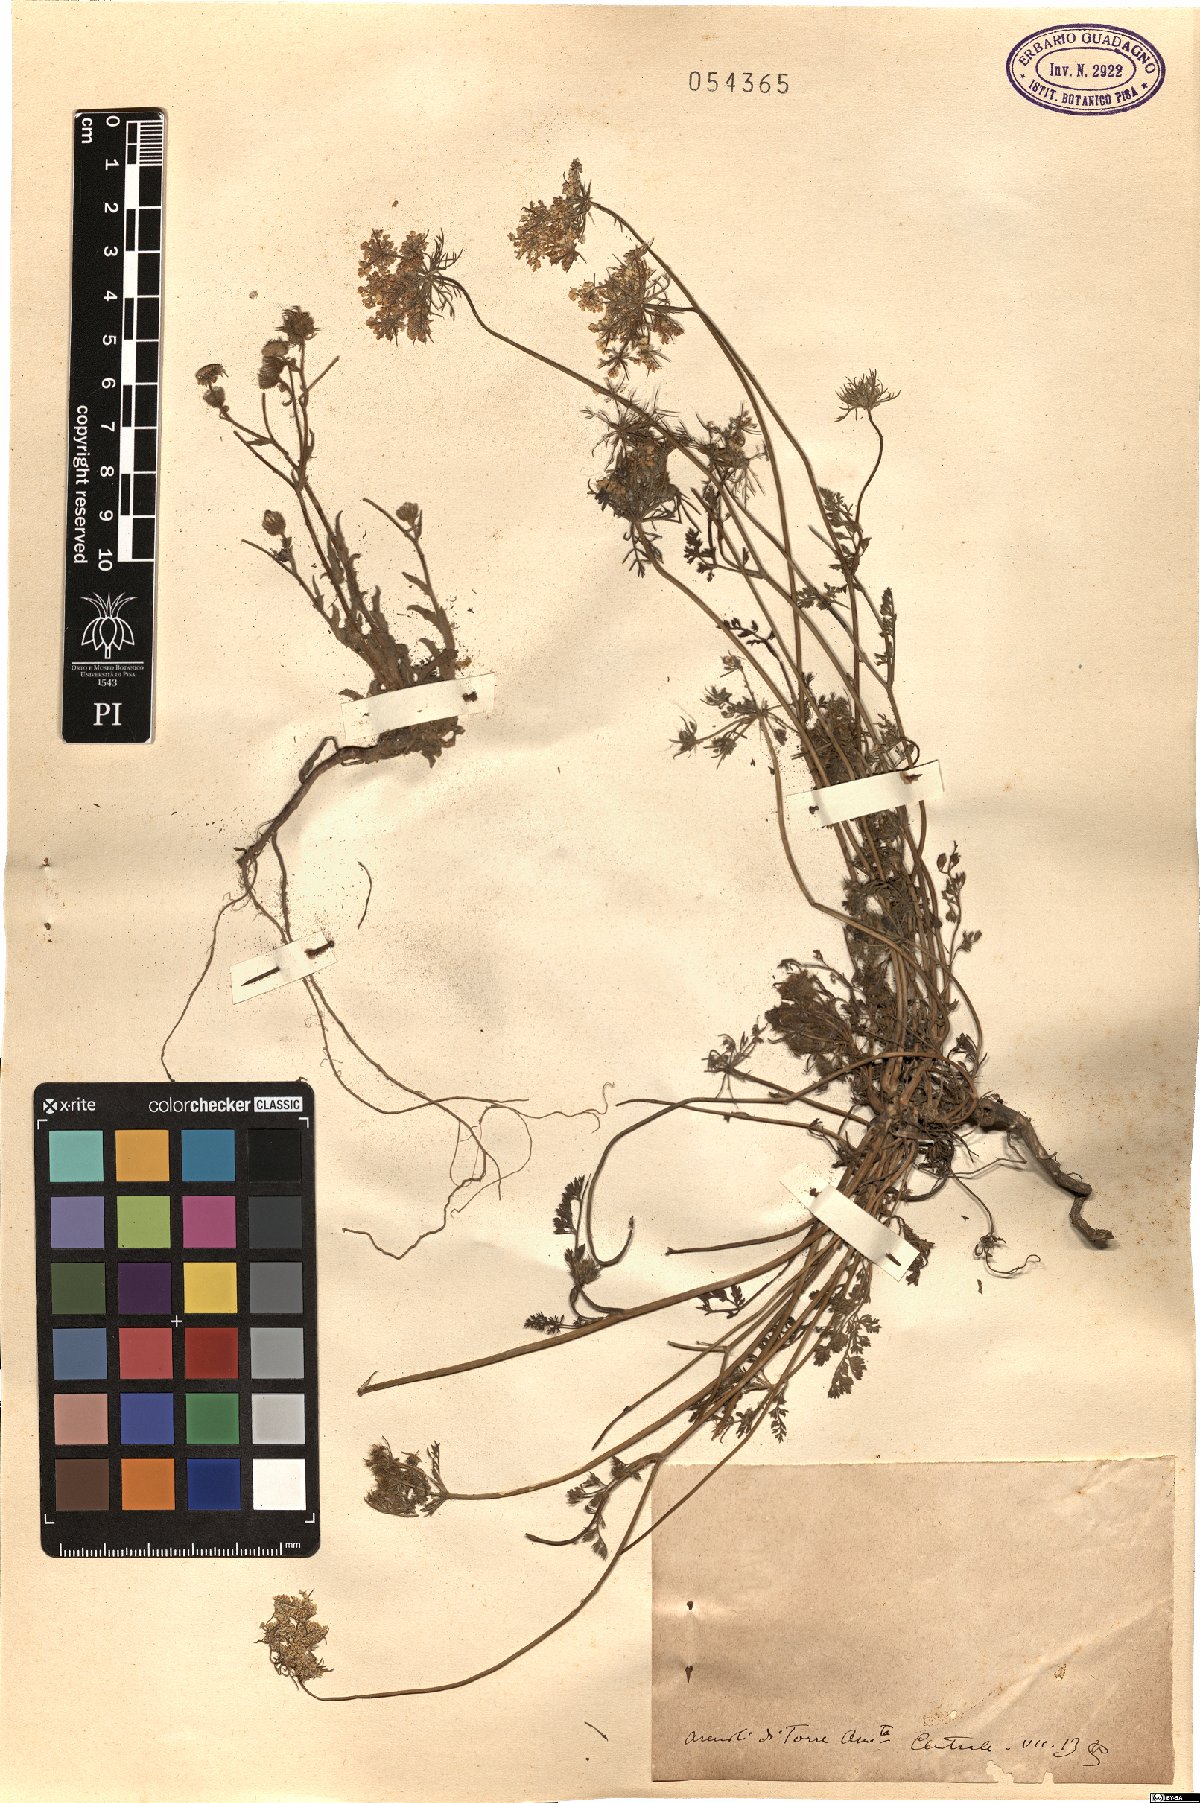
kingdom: Plantae
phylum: Tracheophyta
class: Magnoliopsida
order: Apiales
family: Apiaceae
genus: Daucus
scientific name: Daucus
